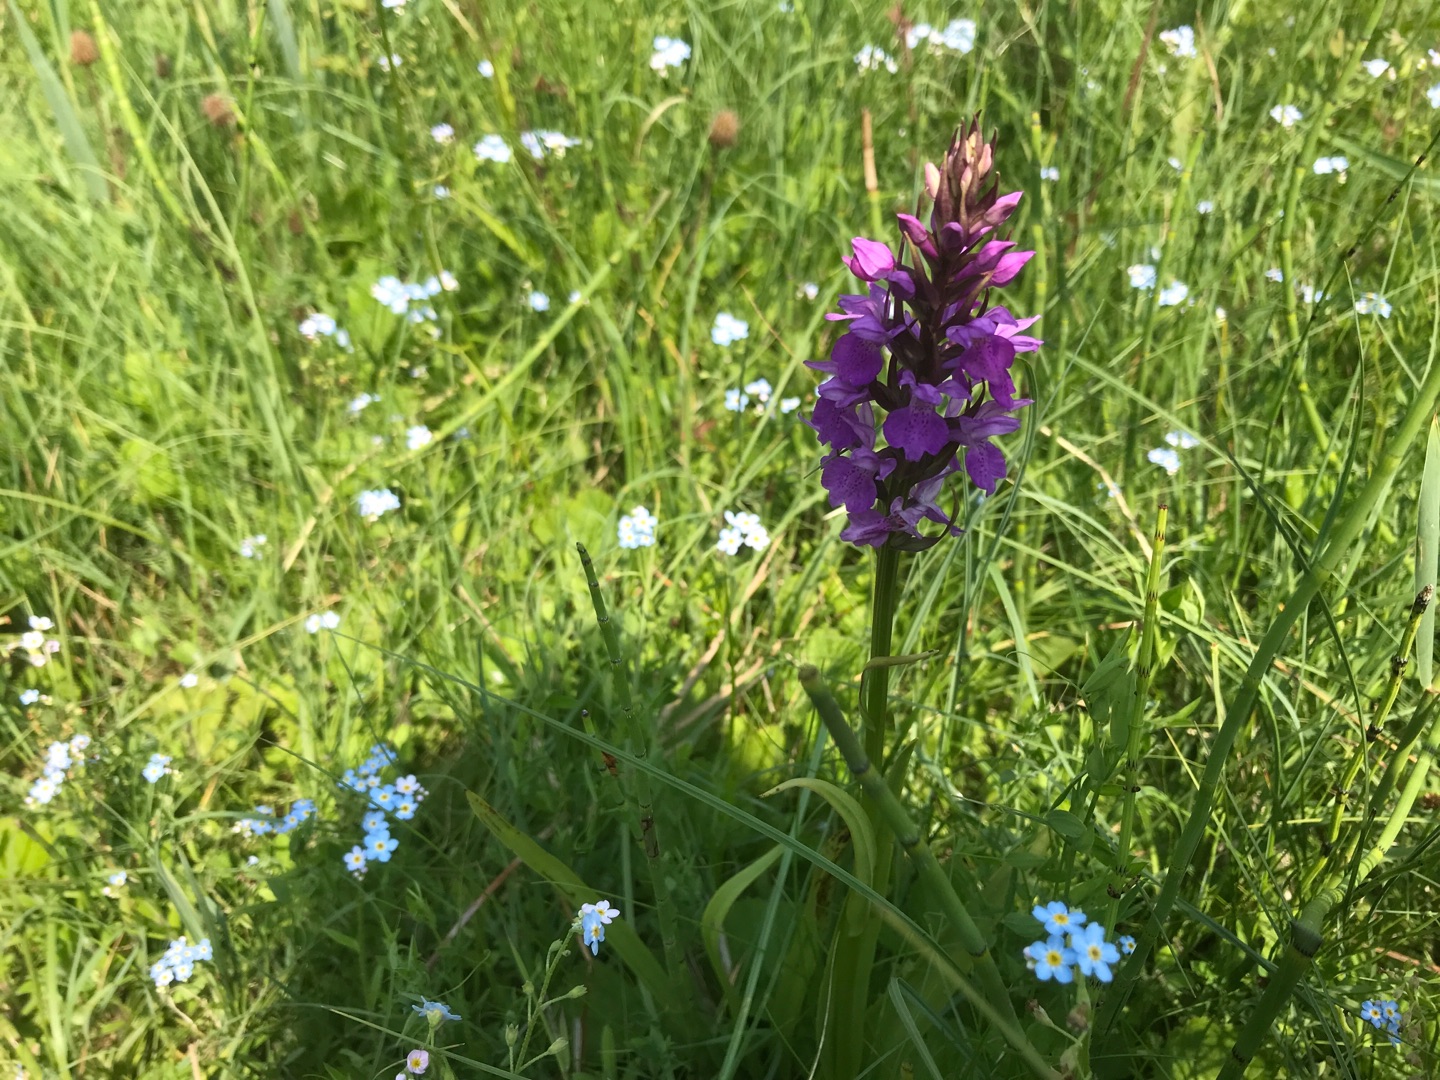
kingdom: Plantae
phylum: Tracheophyta
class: Liliopsida
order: Asparagales
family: Orchidaceae
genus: Dactylorhiza
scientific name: Dactylorhiza majalis
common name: Priklæbet gøgeurt
